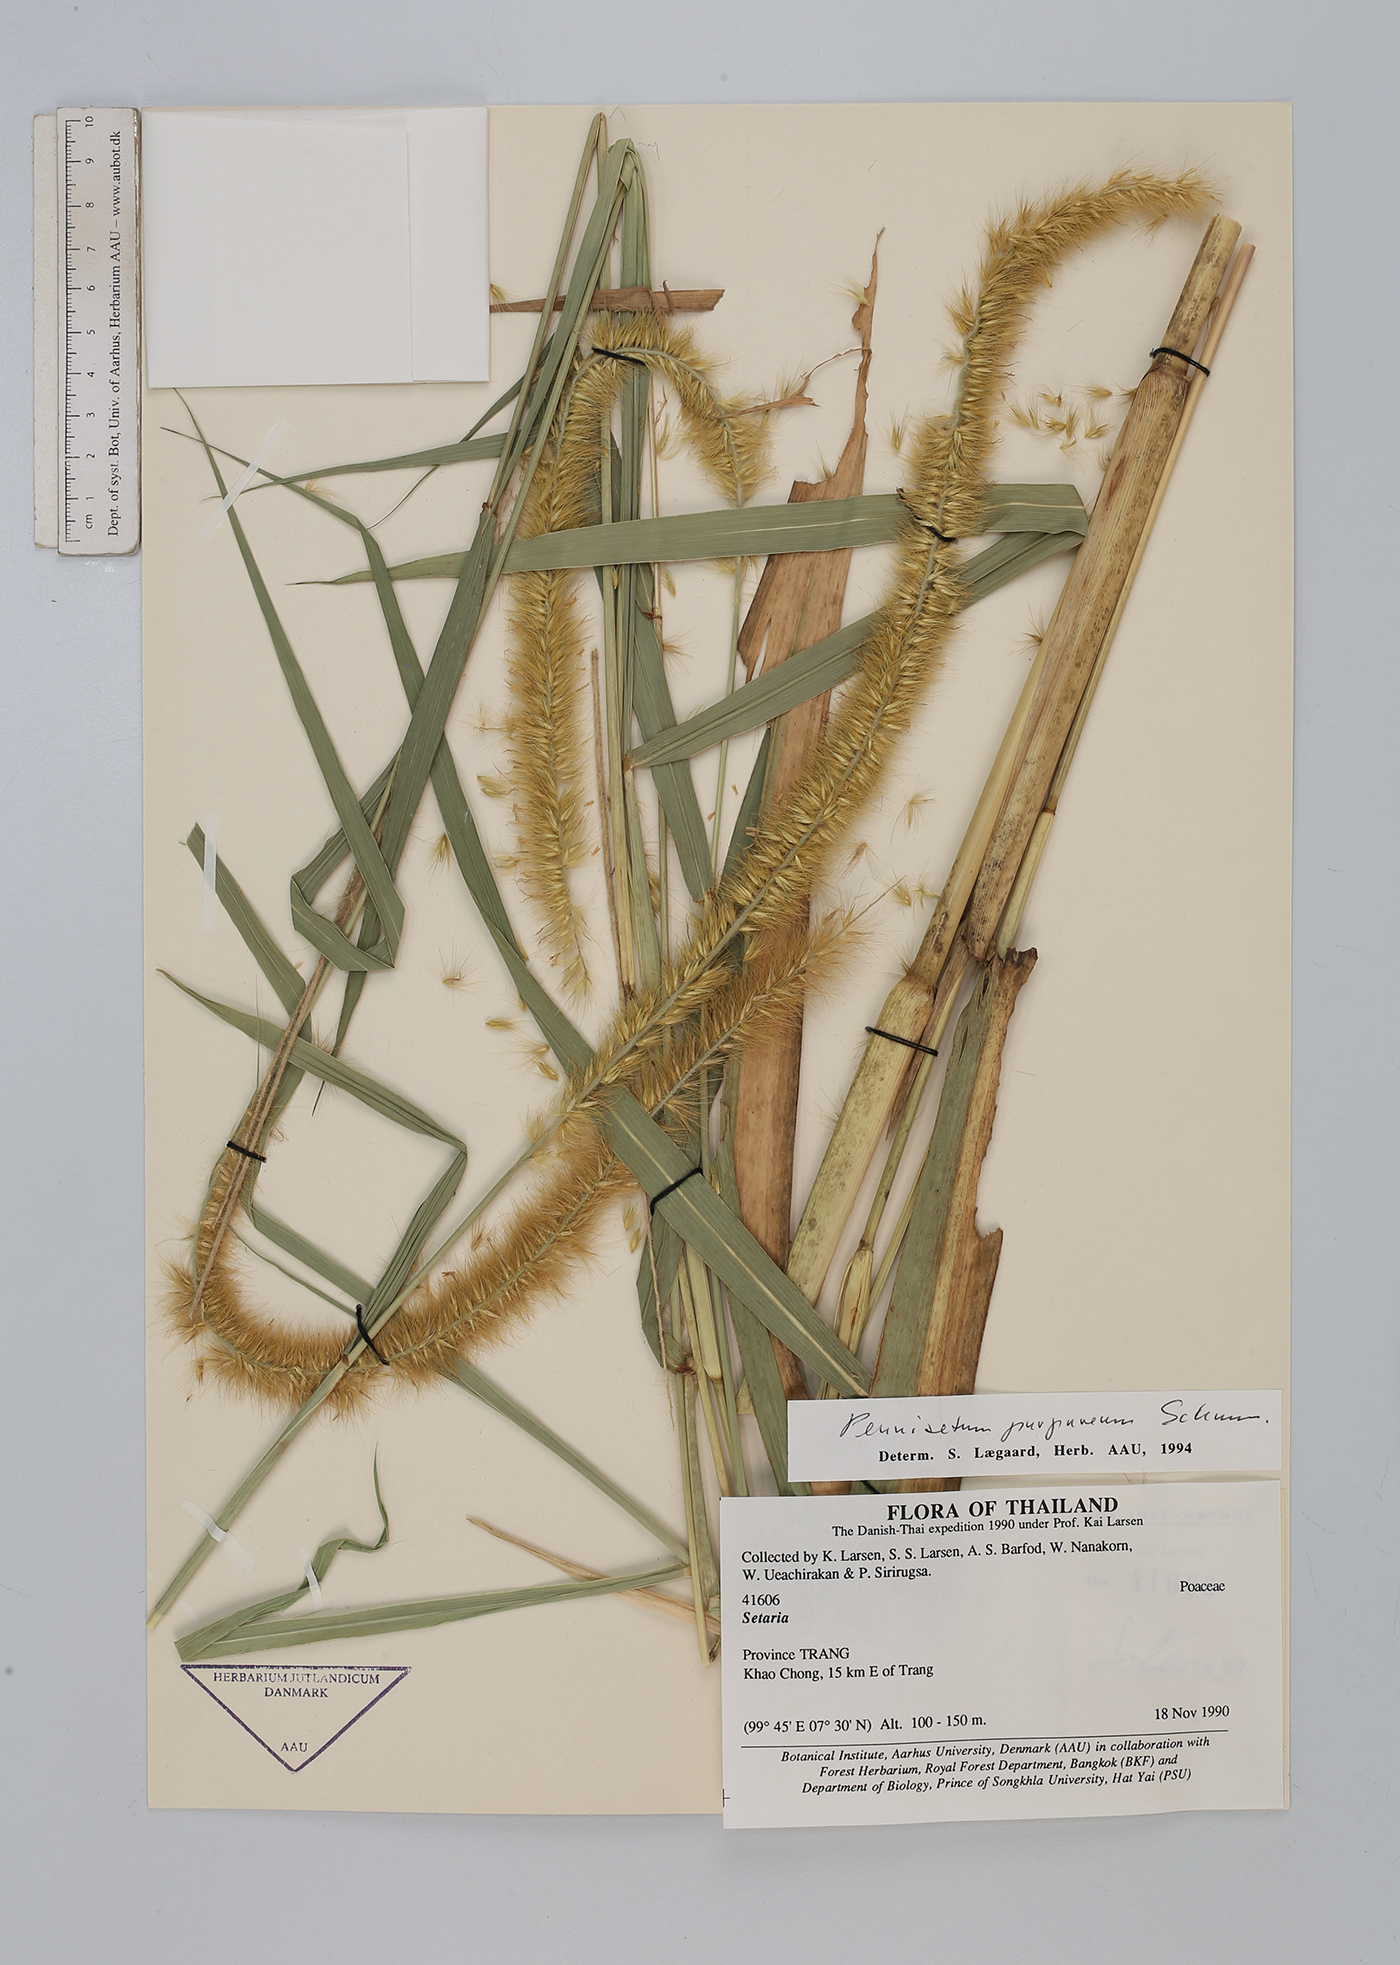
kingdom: Plantae
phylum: Tracheophyta
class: Liliopsida
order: Poales
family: Poaceae
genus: Cenchrus
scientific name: Cenchrus purpureus
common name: Elephant grass
